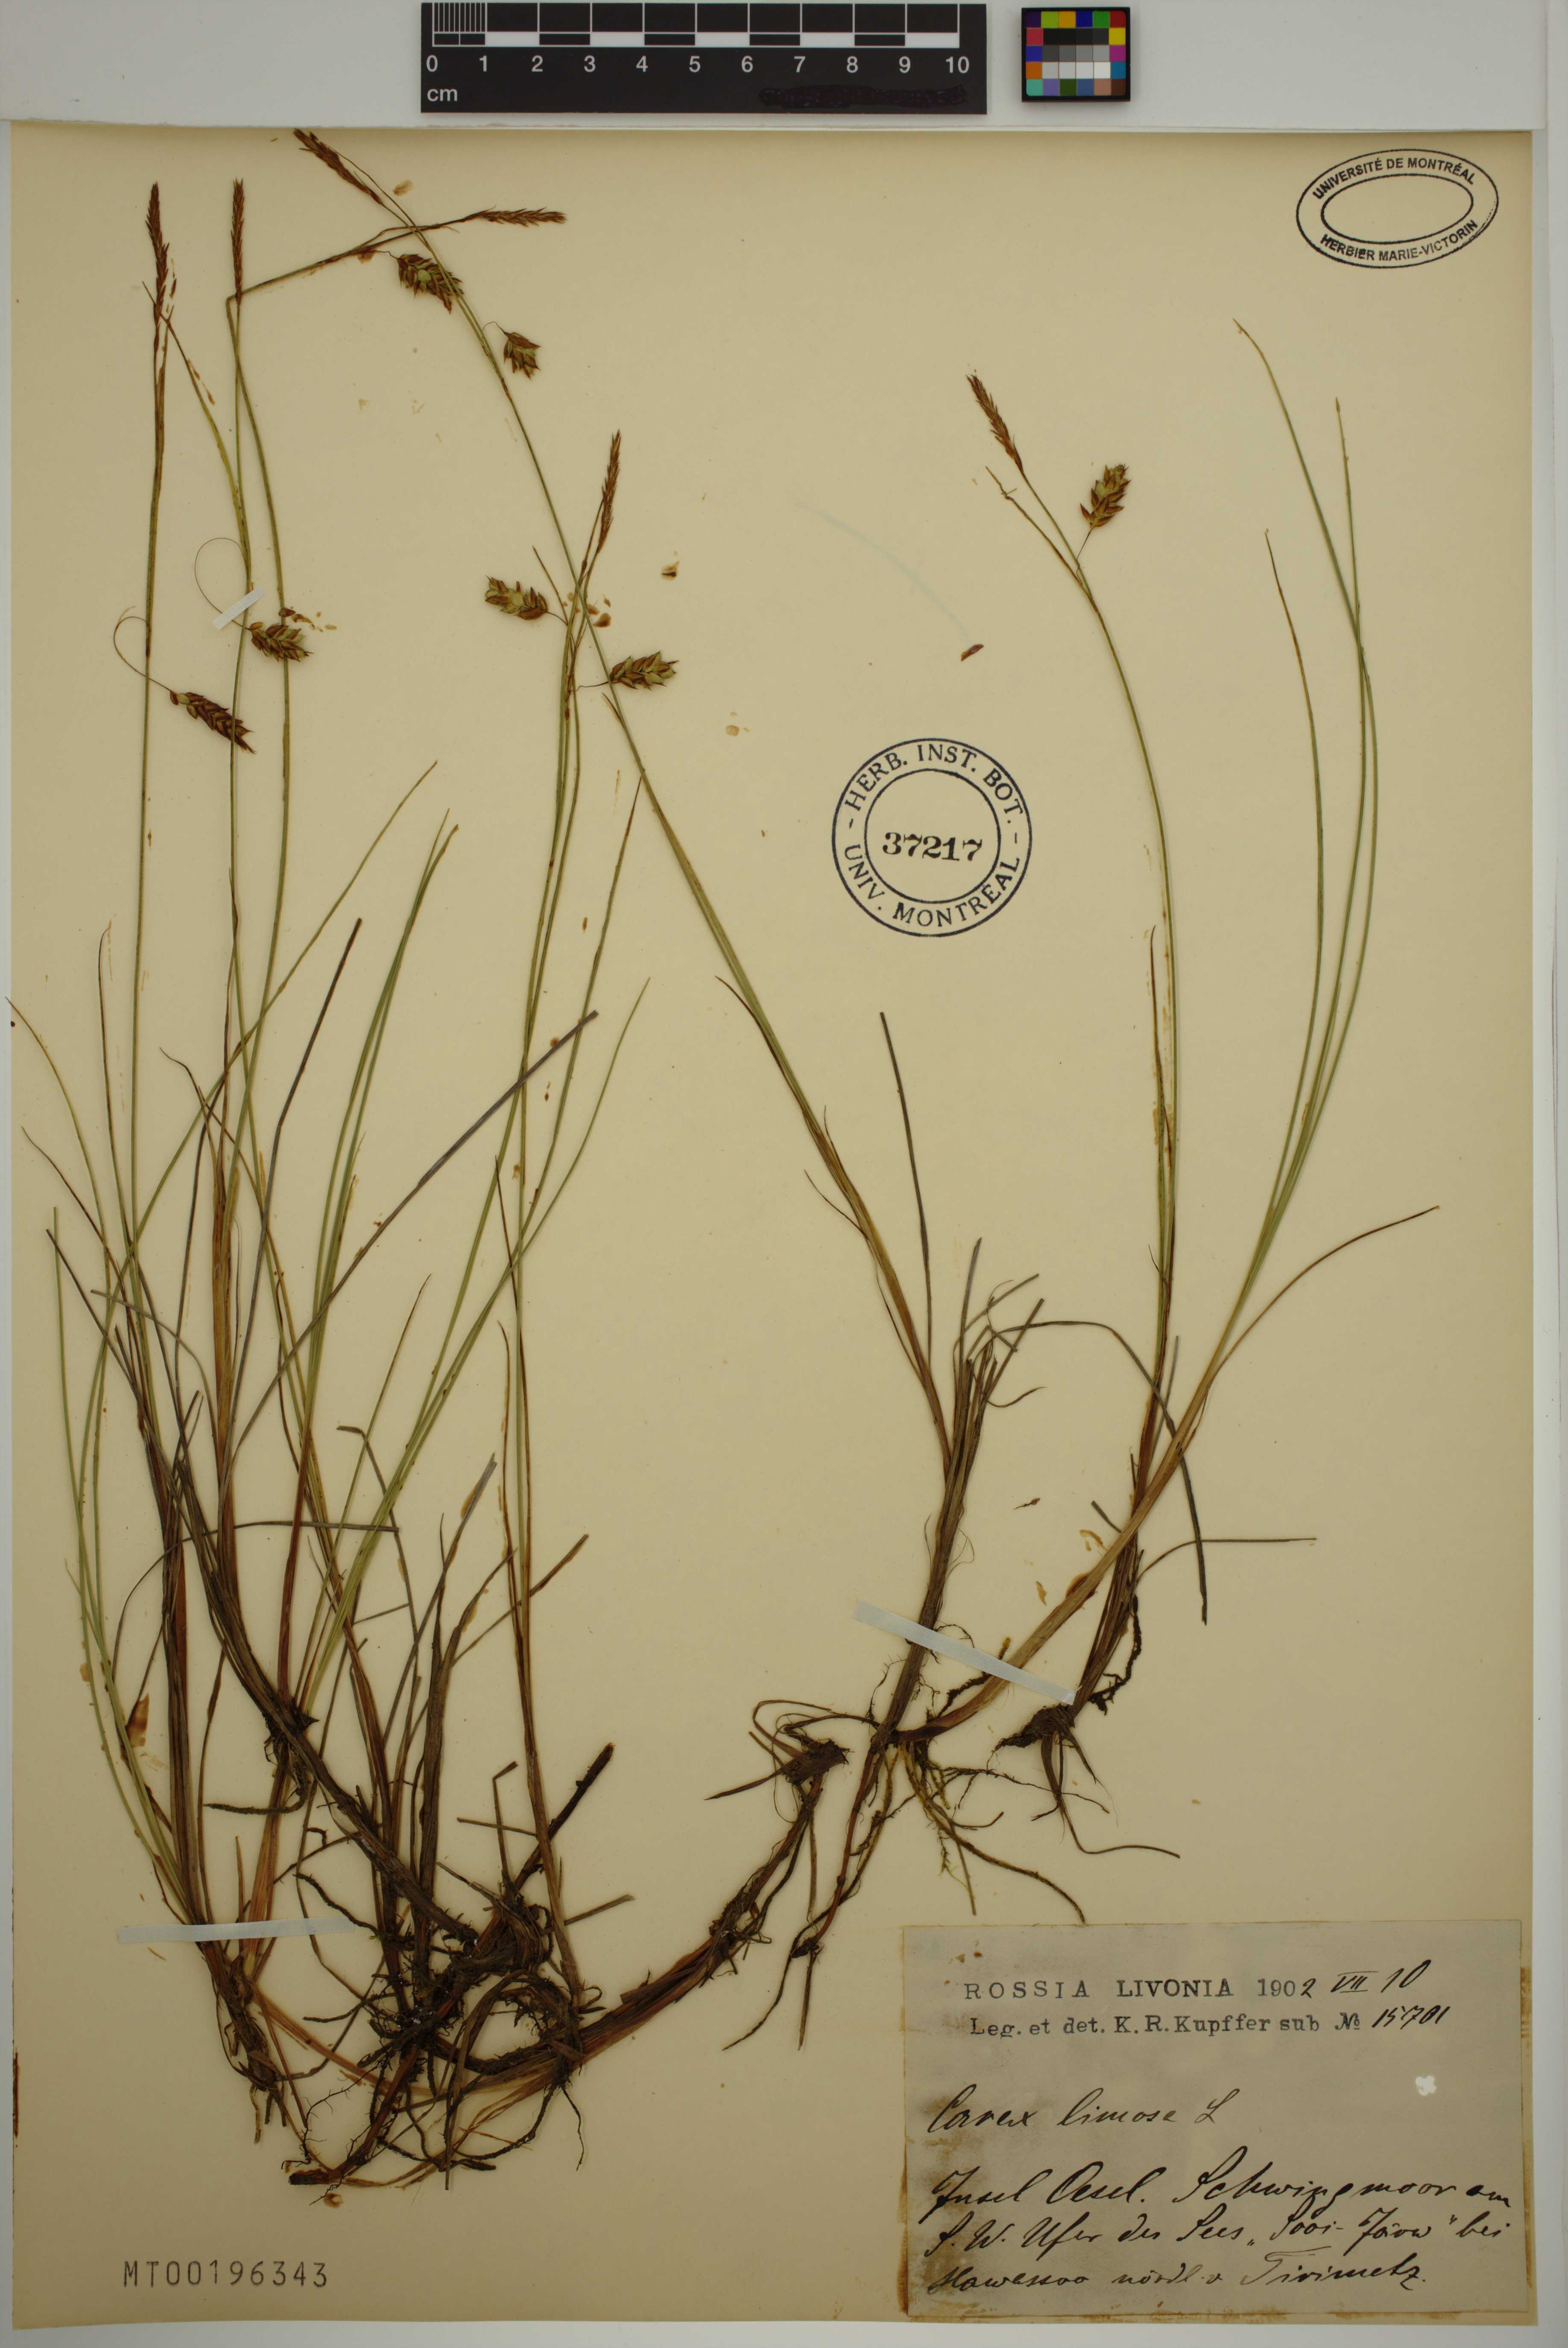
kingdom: Plantae
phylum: Tracheophyta
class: Liliopsida
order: Poales
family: Cyperaceae
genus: Carex
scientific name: Carex limosa
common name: Bog sedge
